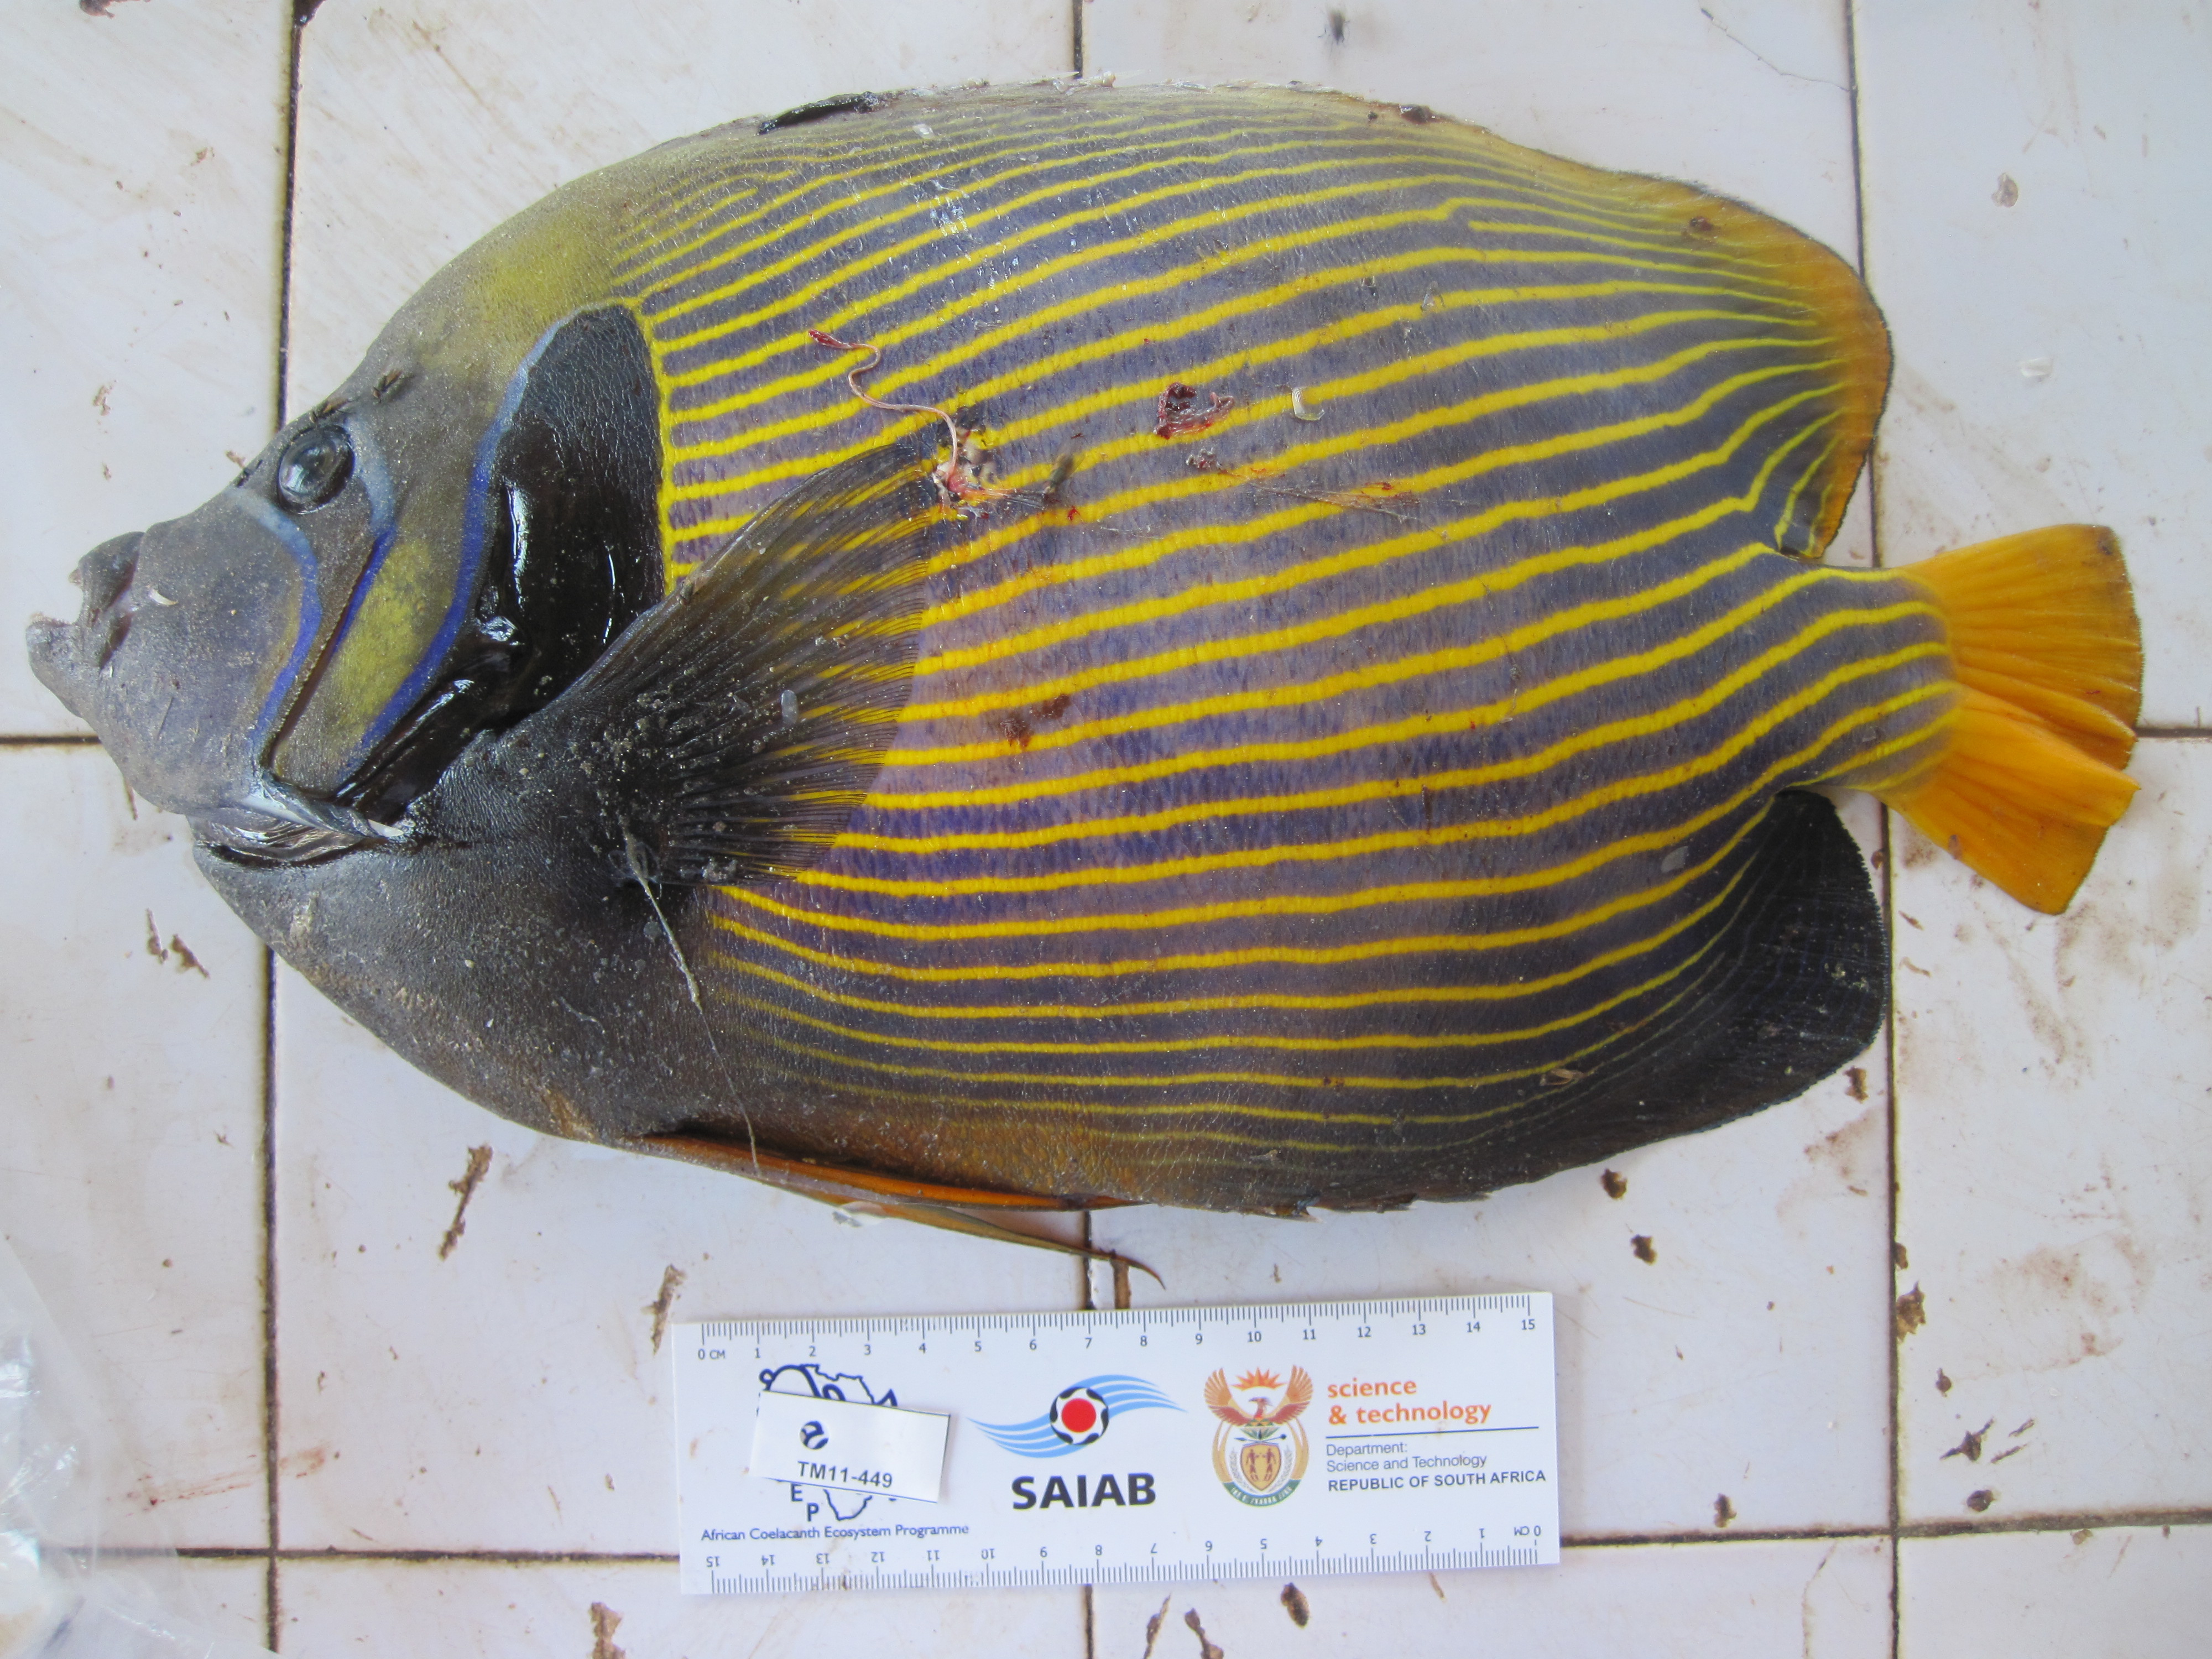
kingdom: Animalia
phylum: Chordata
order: Perciformes
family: Pomacanthidae
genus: Pomacanthus
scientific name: Pomacanthus imperator
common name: Emperor angelfish
